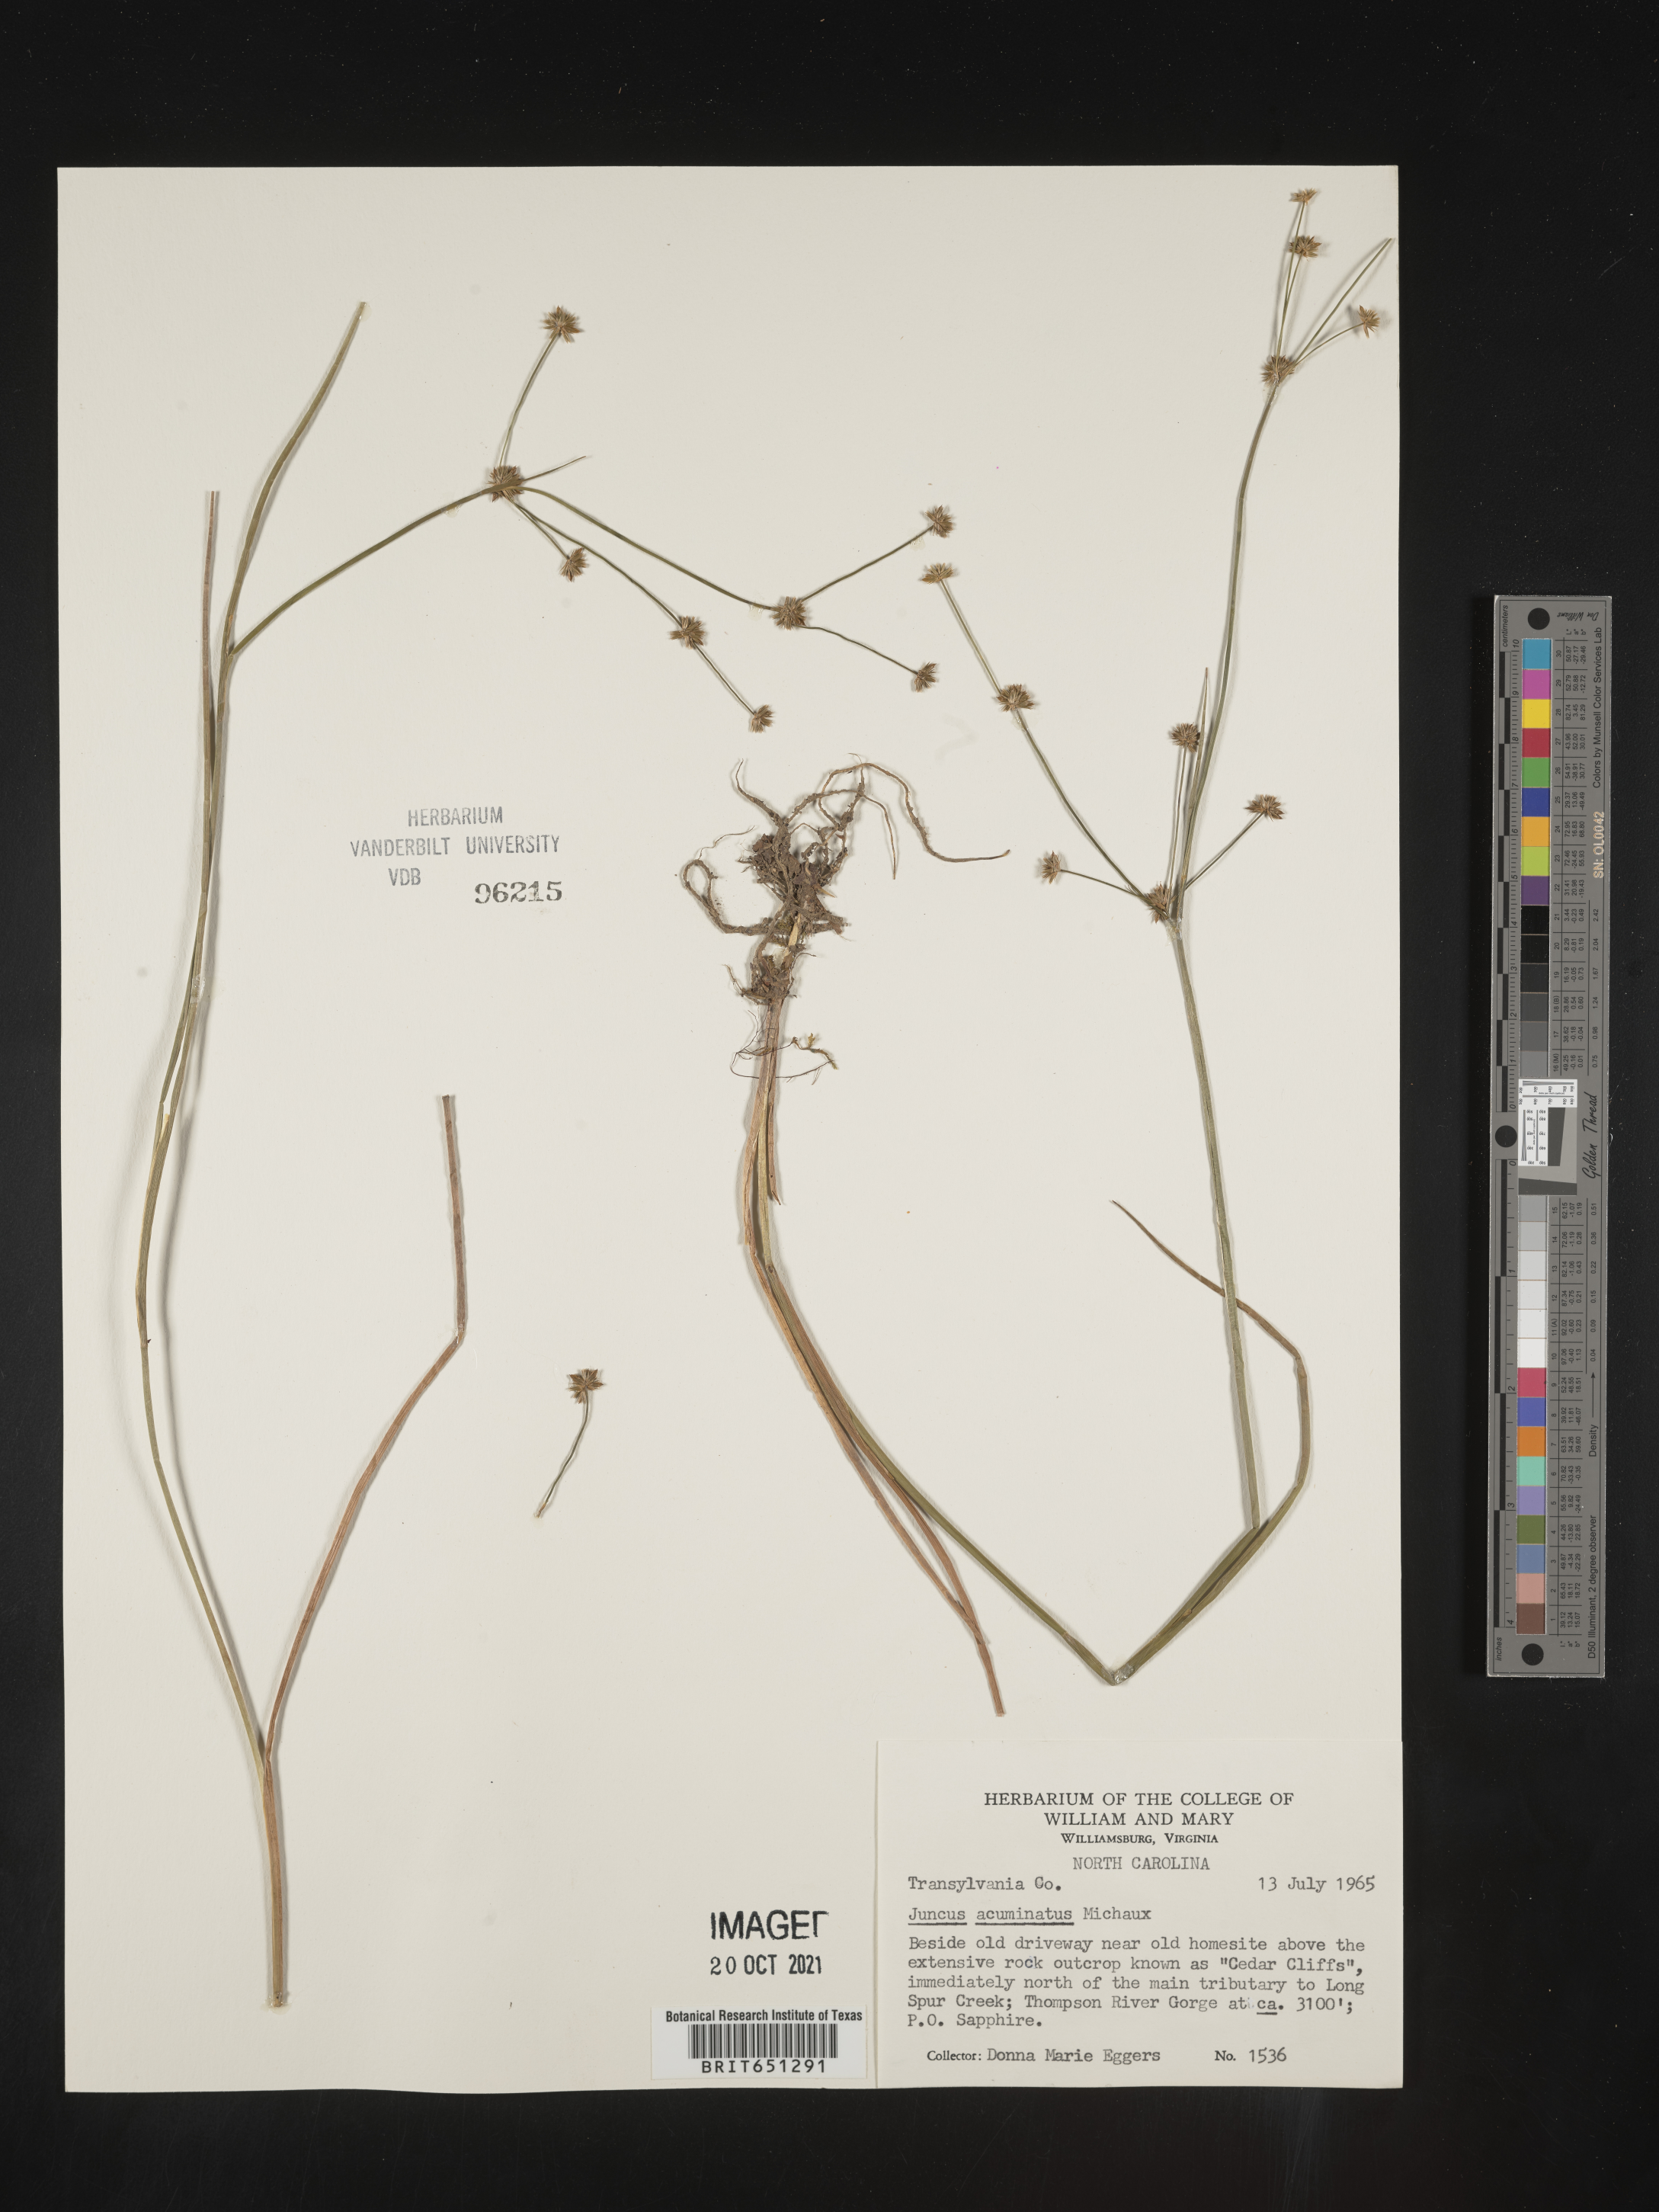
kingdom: Plantae
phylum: Tracheophyta
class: Liliopsida
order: Poales
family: Juncaceae
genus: Juncus
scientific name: Juncus acuminatus
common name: Knotty-leaved rush
